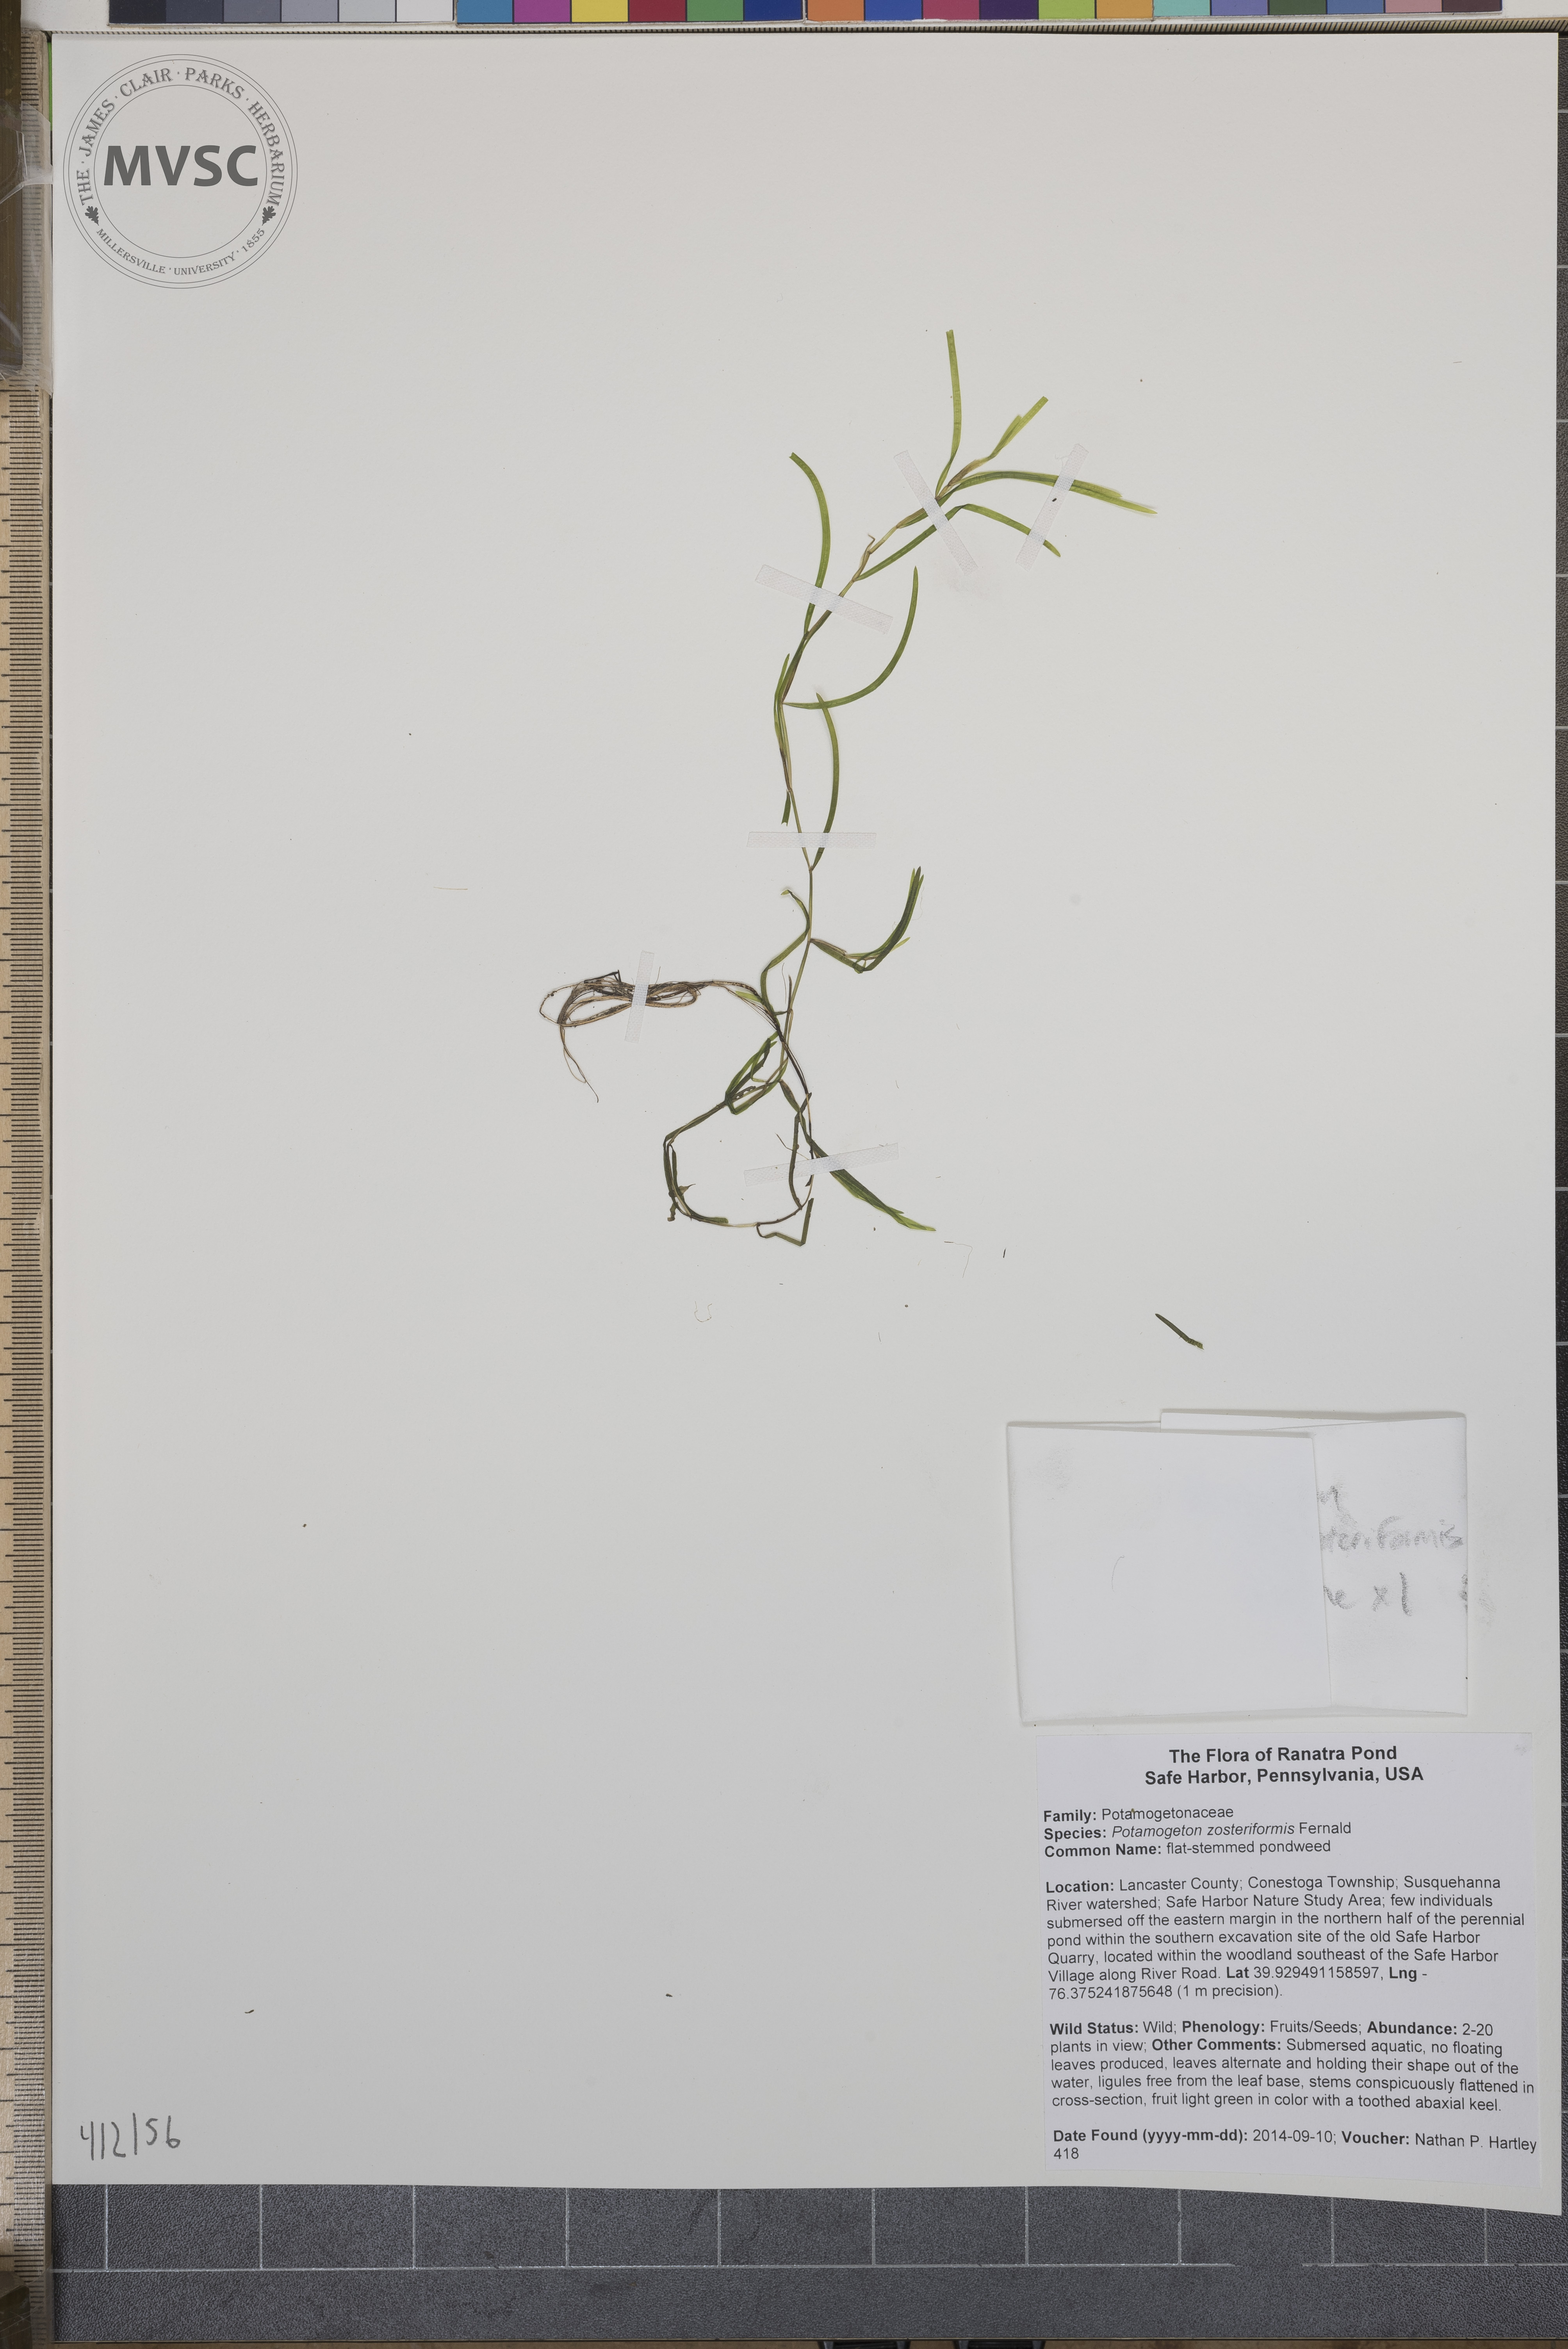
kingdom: Plantae
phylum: Tracheophyta
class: Liliopsida
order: Alismatales
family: Potamogetonaceae
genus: Potamogeton
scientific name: Potamogeton zosteriformis
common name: flat-stemmed pondweed
